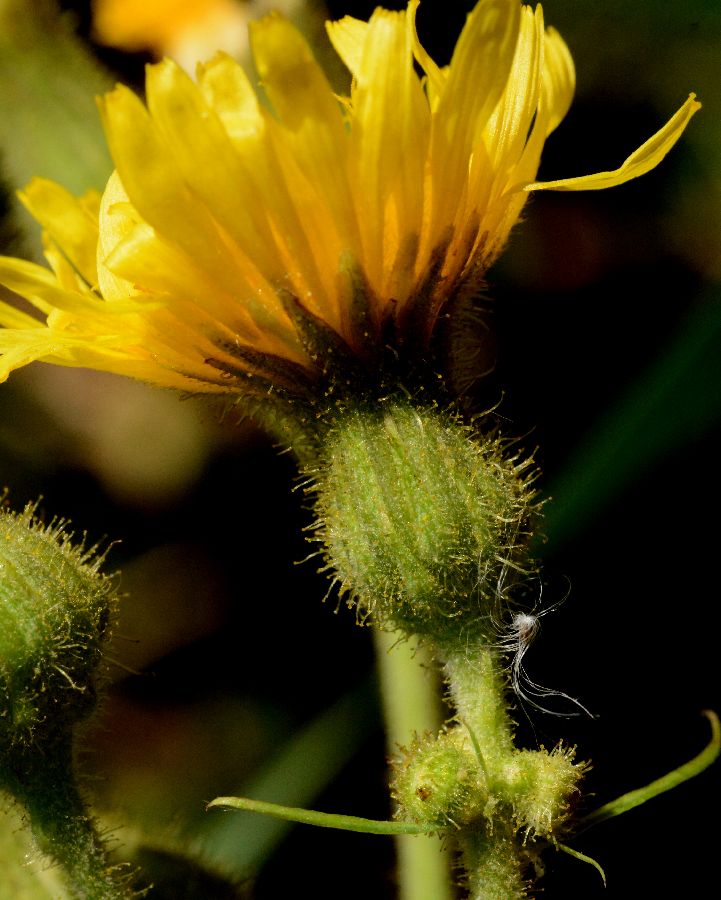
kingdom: Plantae
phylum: Tracheophyta
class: Magnoliopsida
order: Asterales
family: Asteraceae
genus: Sonchus
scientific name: Sonchus palustris
